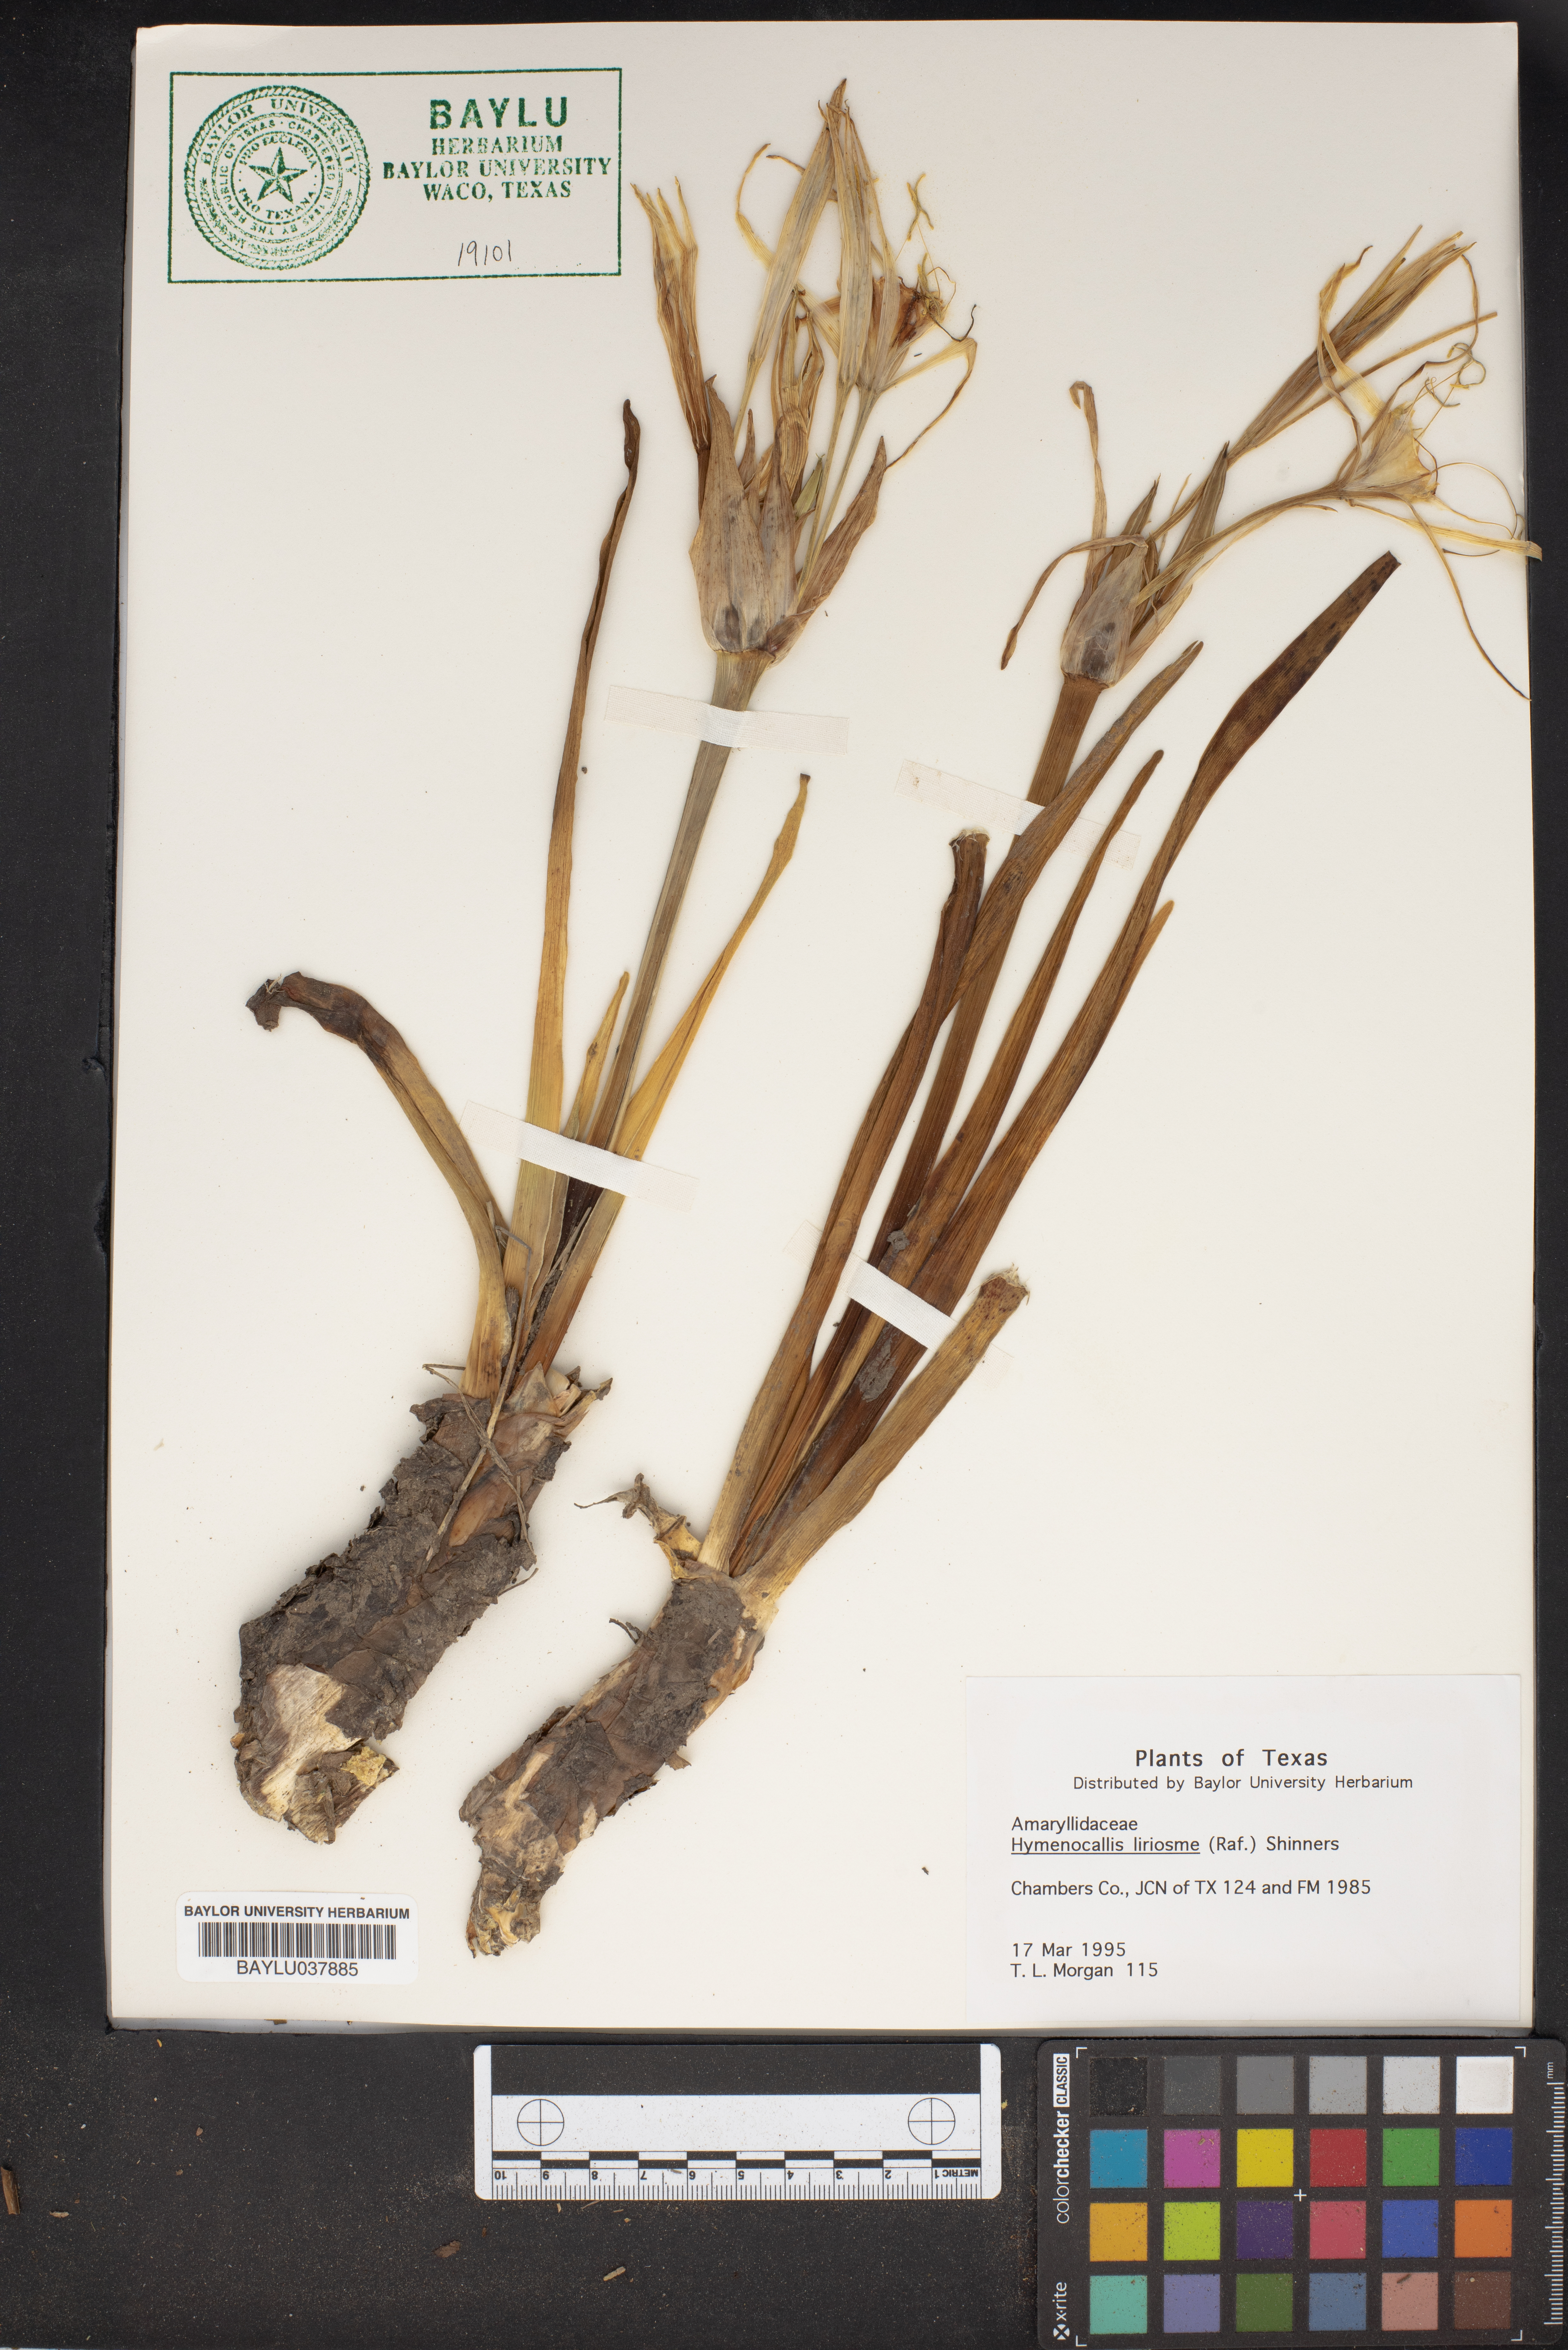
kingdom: Plantae
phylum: Tracheophyta
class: Liliopsida
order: Asparagales
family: Amaryllidaceae
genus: Hymenocallis
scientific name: Hymenocallis liriosme
